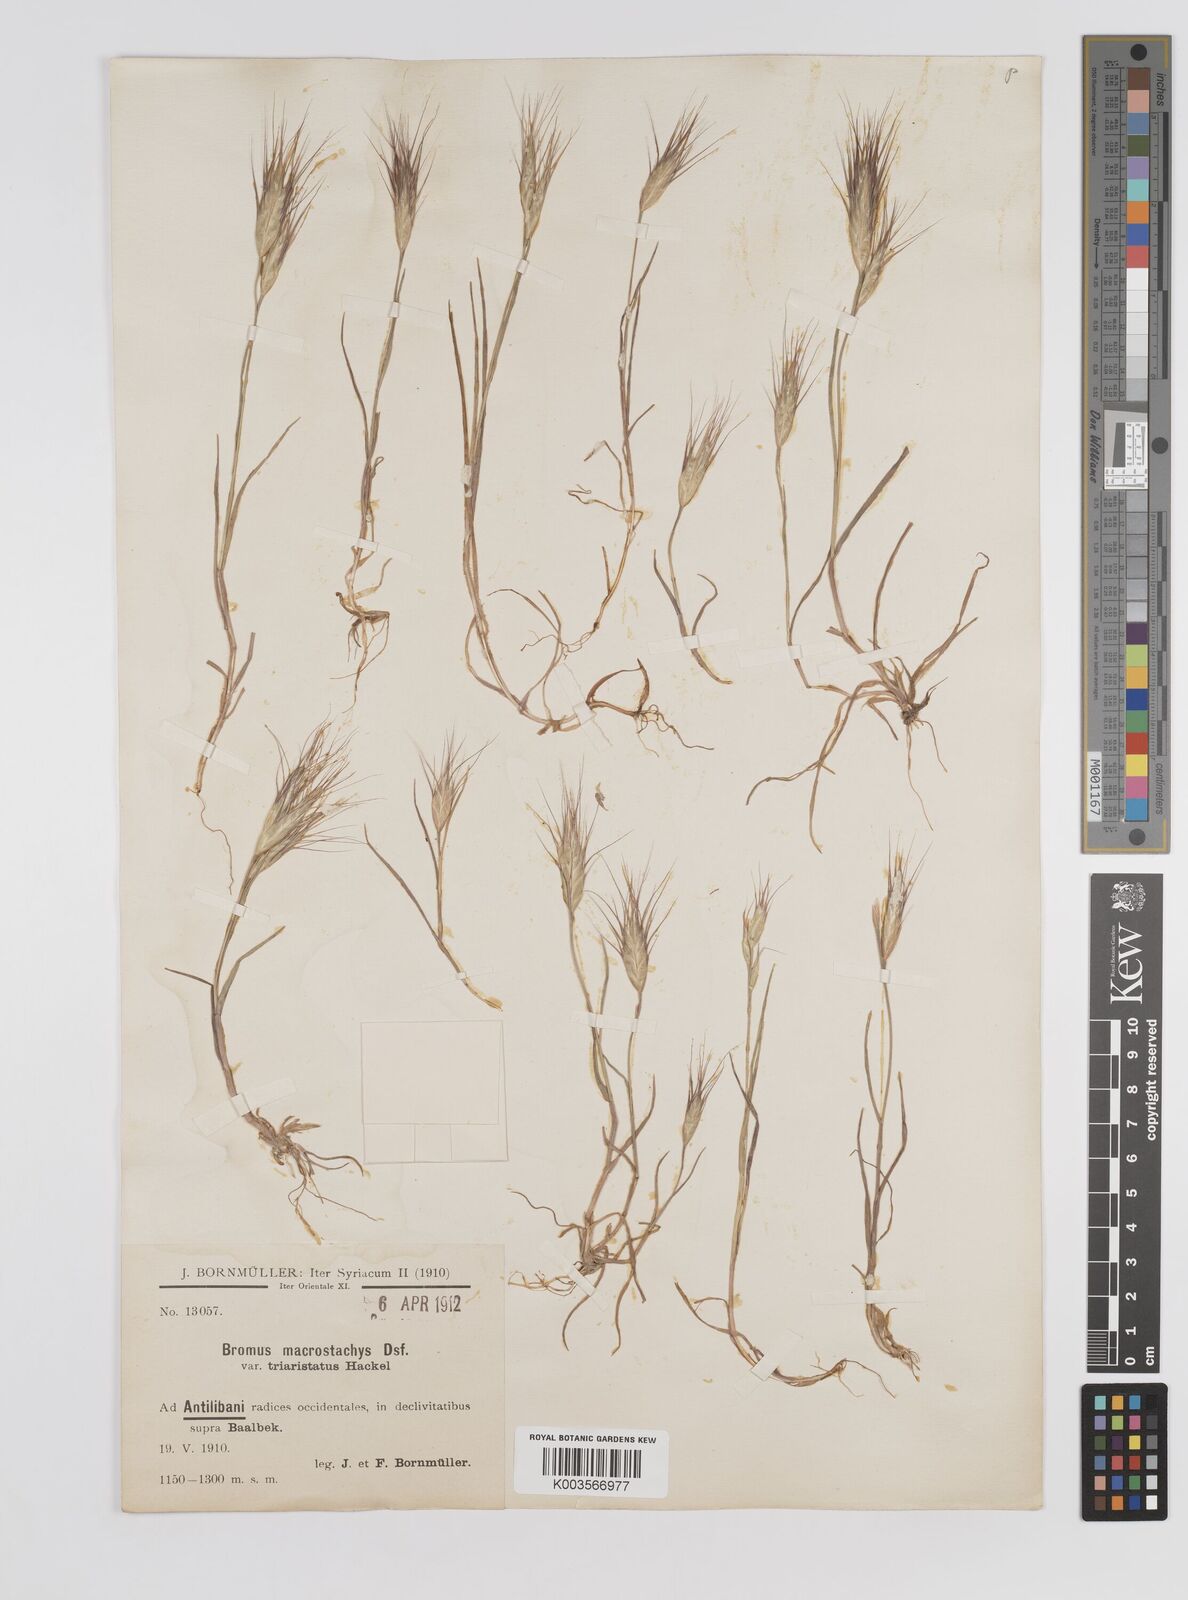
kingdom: Plantae
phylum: Tracheophyta
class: Liliopsida
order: Poales
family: Poaceae
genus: Bromus
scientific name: Bromus danthoniae
